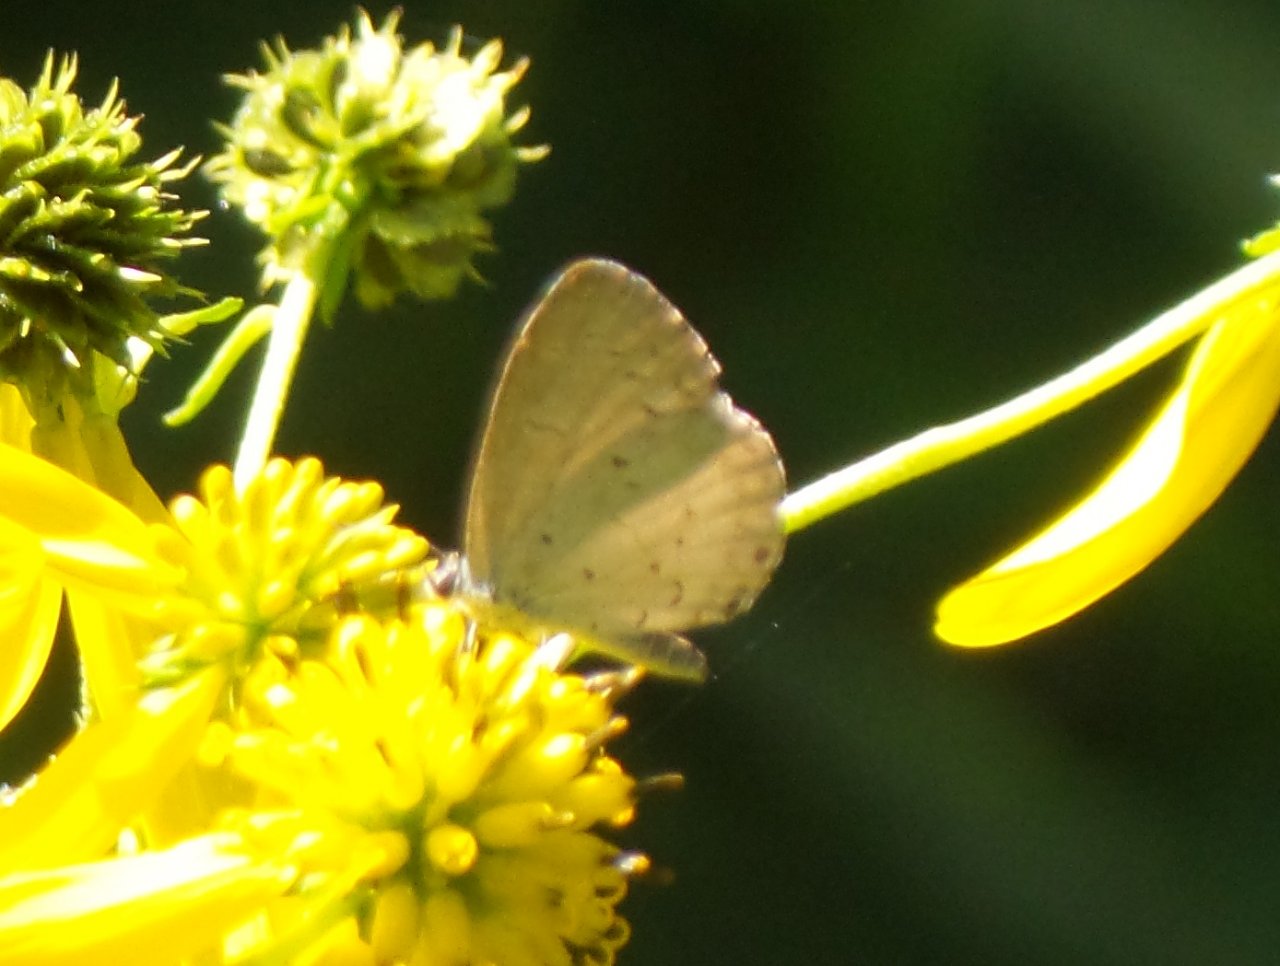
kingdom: Animalia
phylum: Arthropoda
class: Insecta
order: Lepidoptera
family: Lycaenidae
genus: Celastrina
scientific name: Celastrina
